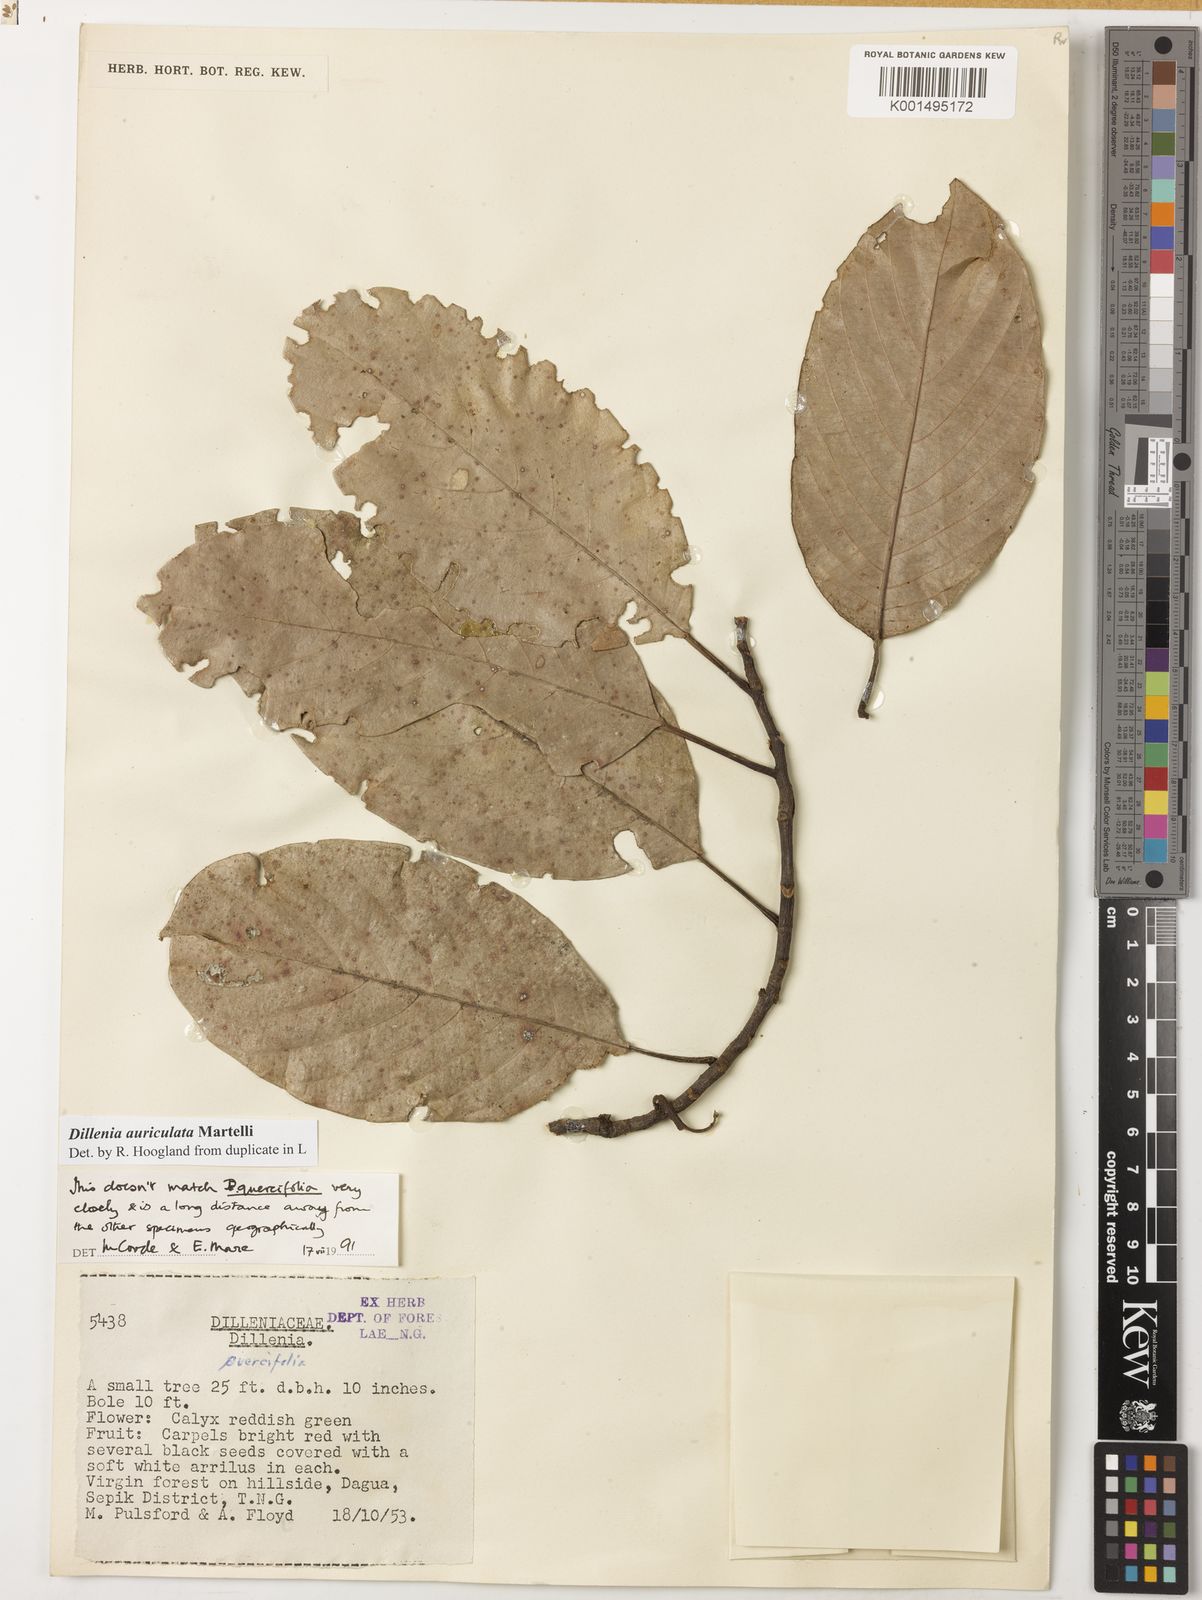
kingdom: Plantae
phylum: Tracheophyta
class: Magnoliopsida
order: Dilleniales
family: Dilleniaceae
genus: Dillenia
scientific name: Dillenia auriculata
